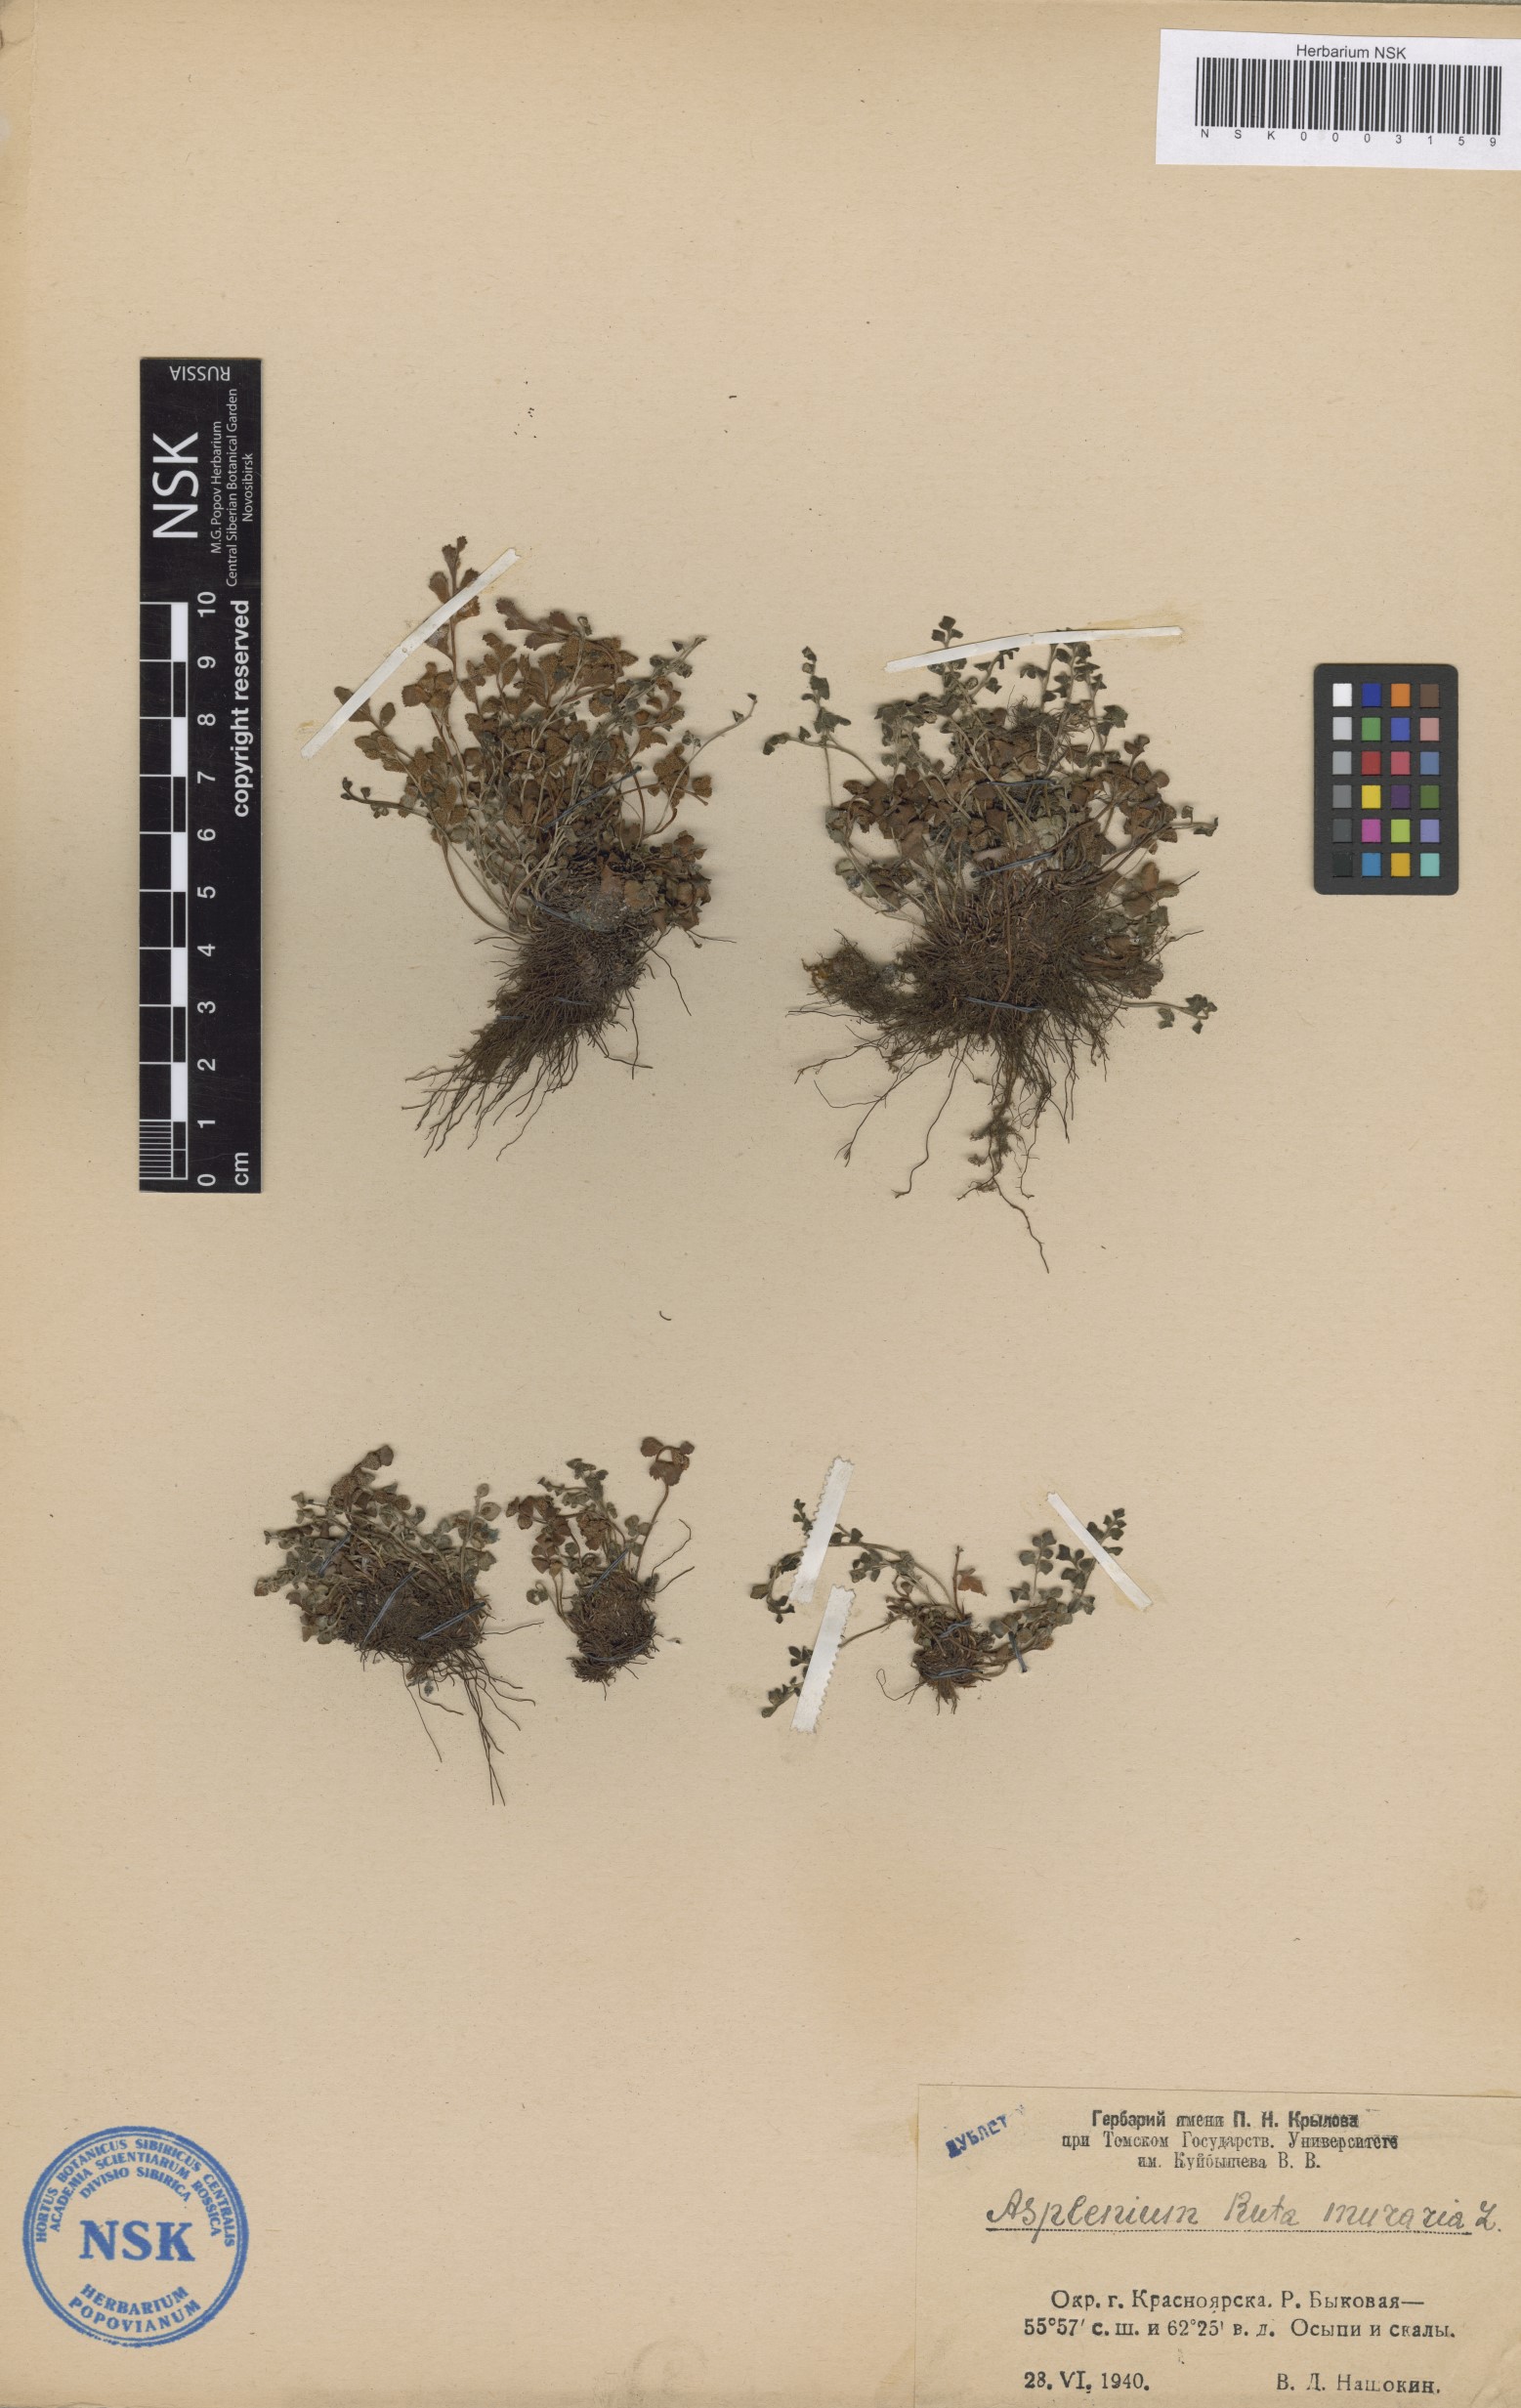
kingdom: Plantae
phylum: Tracheophyta
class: Polypodiopsida
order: Polypodiales
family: Aspleniaceae
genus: Asplenium
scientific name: Asplenium ruta-muraria
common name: Wall-rue
